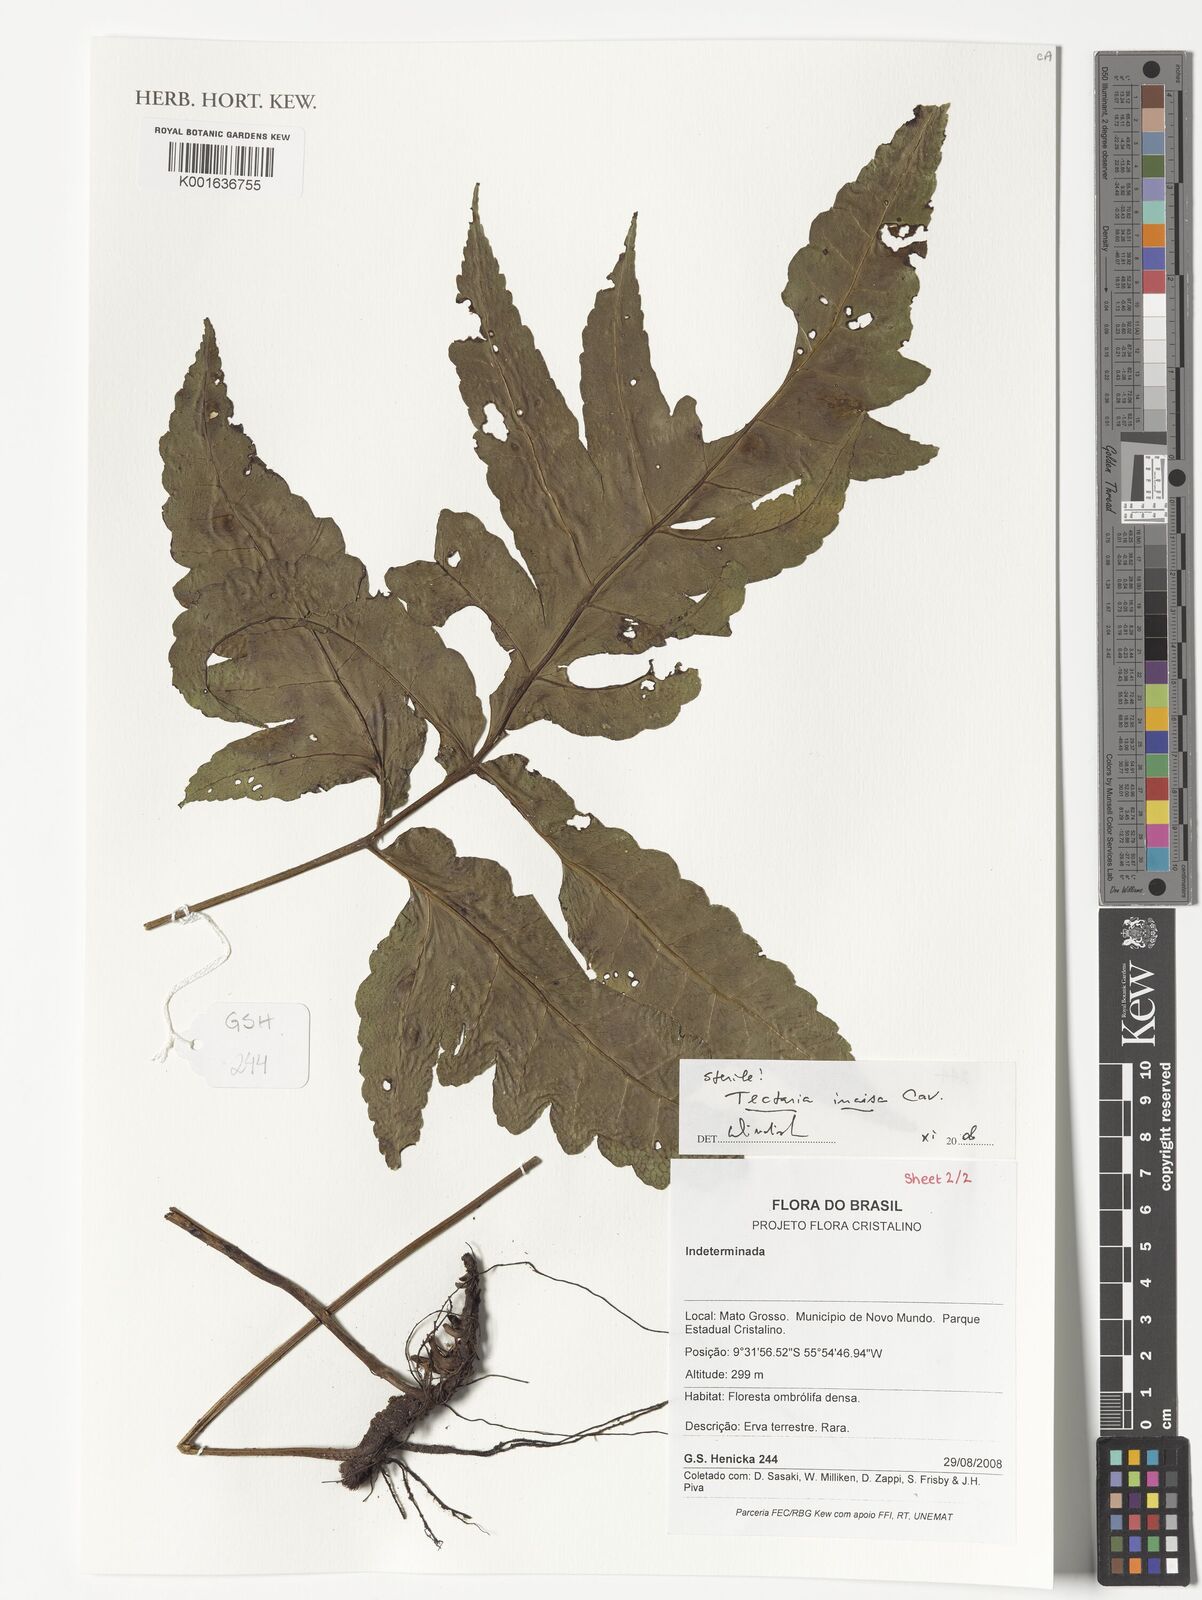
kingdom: Plantae
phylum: Tracheophyta
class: Polypodiopsida
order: Polypodiales
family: Tectariaceae
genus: Tectaria
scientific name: Tectaria incisa
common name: Incised halberd fern
